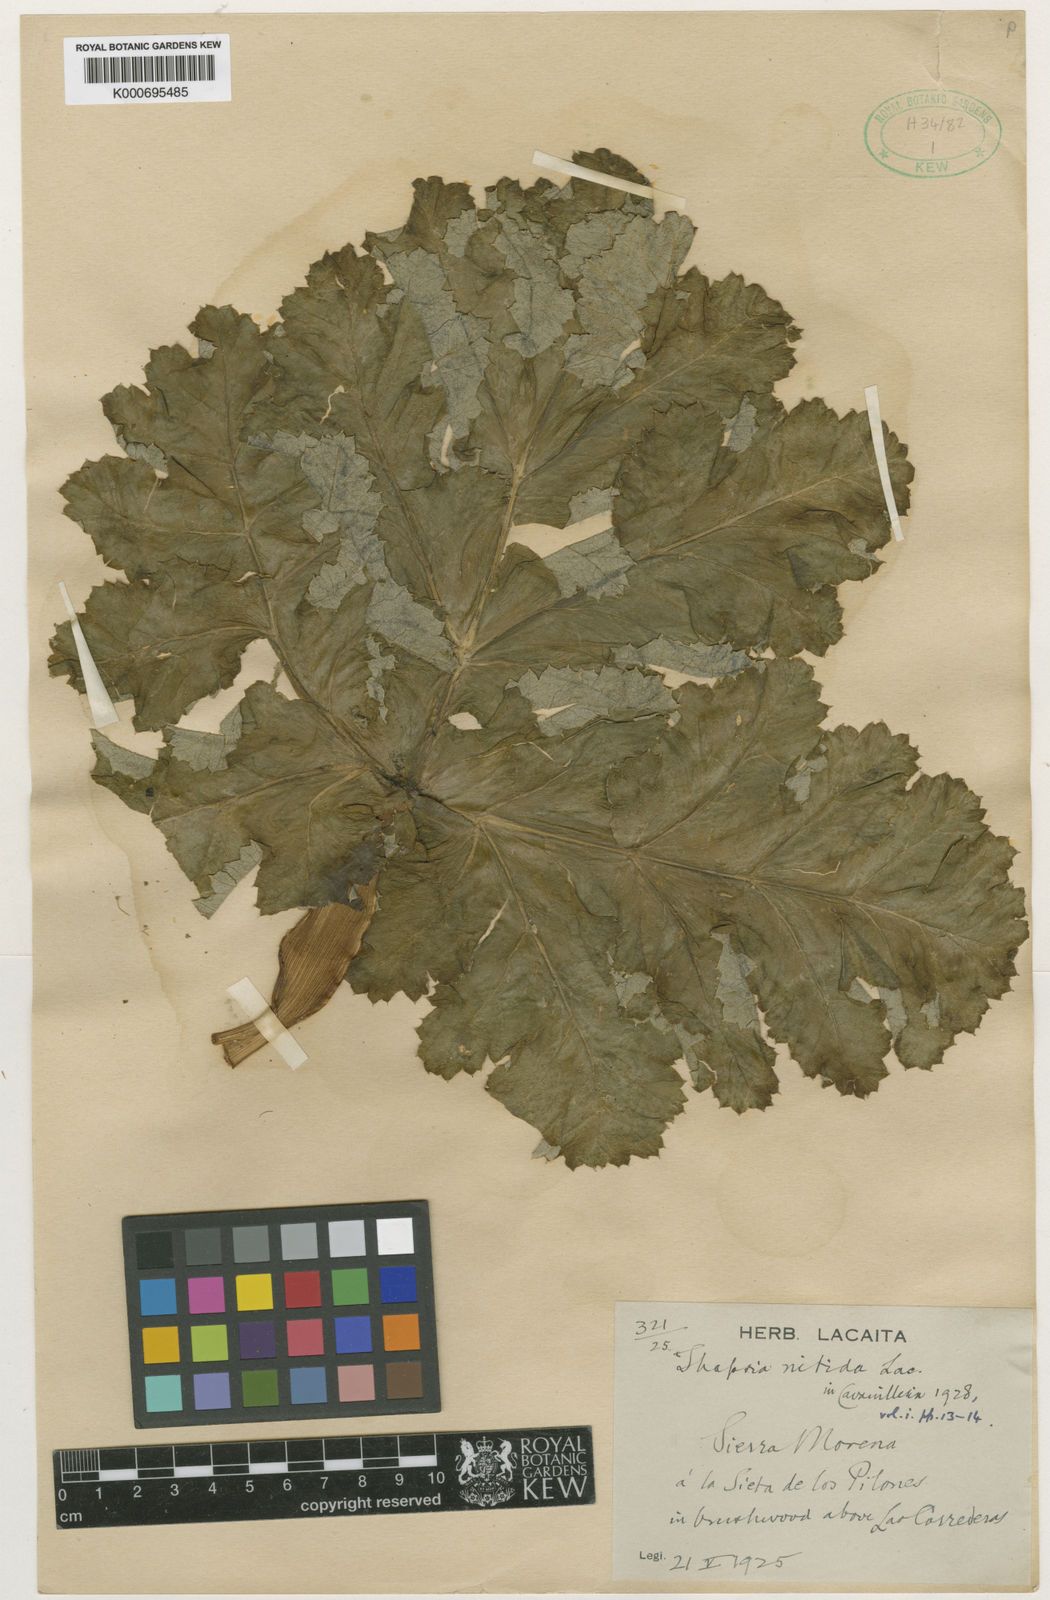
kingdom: Plantae
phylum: Tracheophyta
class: Magnoliopsida
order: Apiales
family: Apiaceae
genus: Thapsia
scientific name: Thapsia nitida
